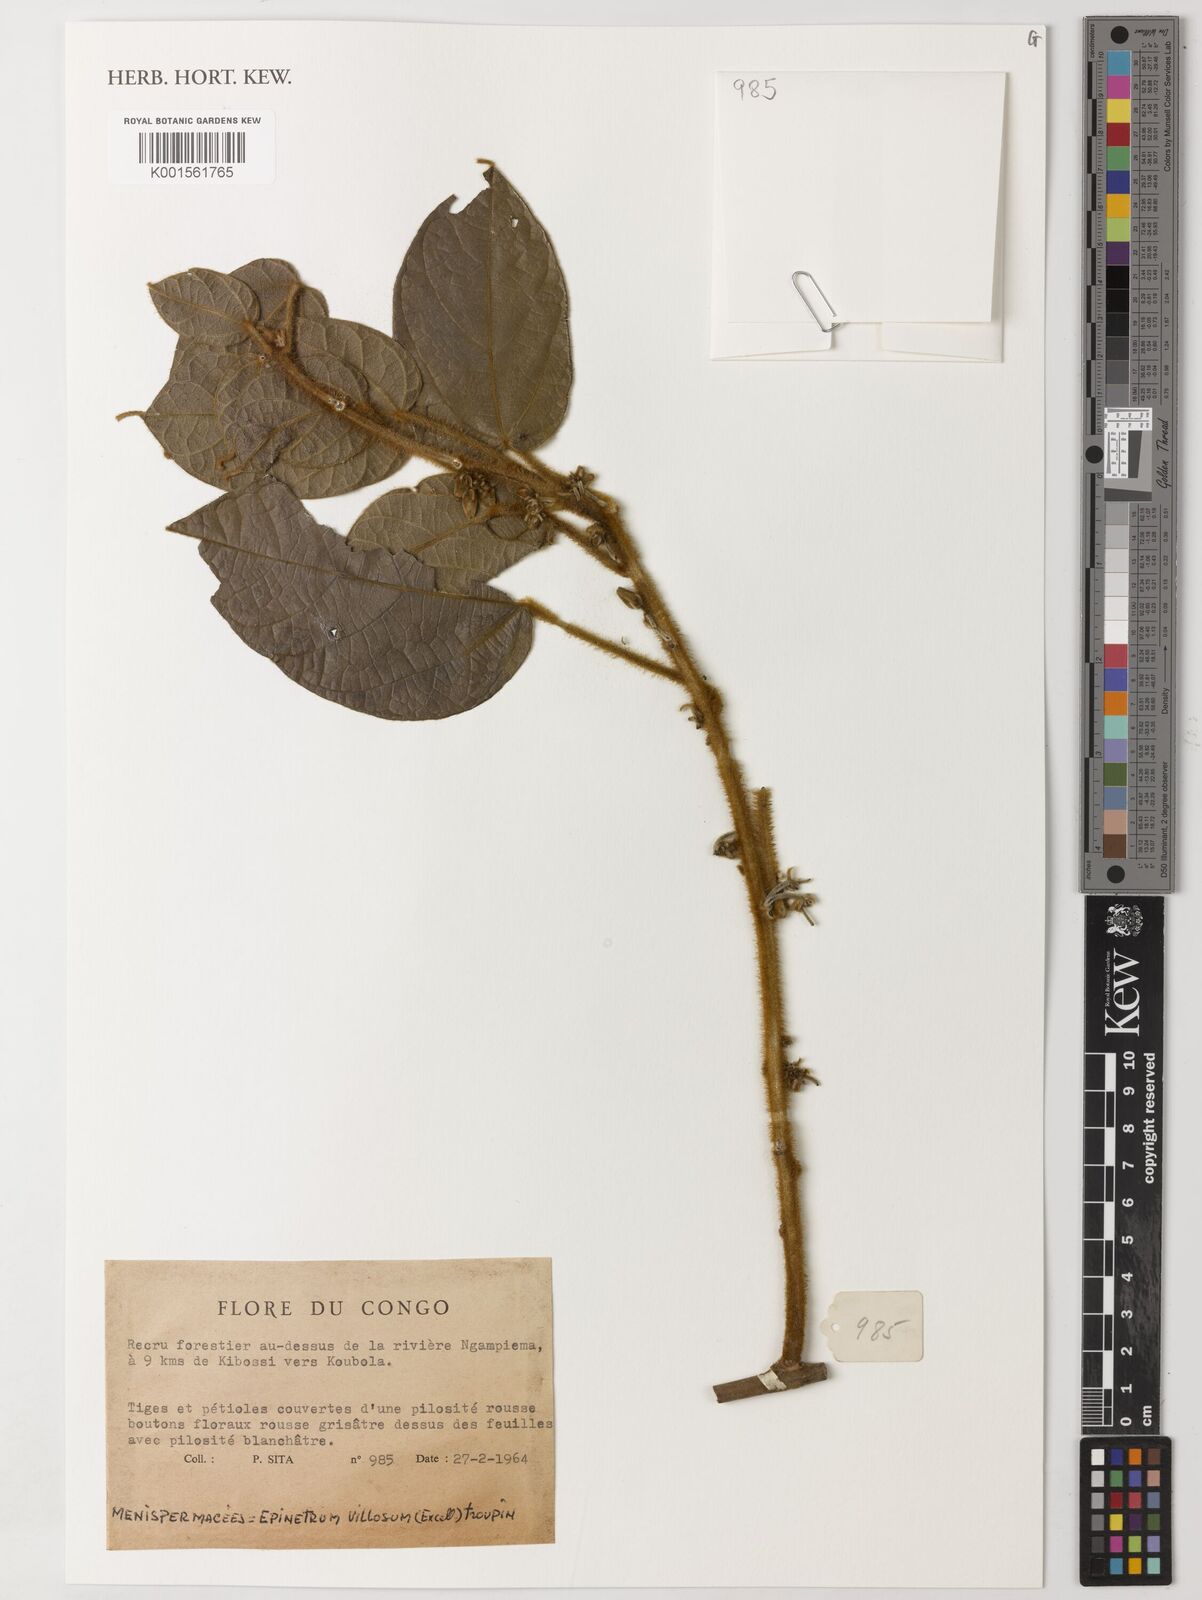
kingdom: Plantae
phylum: Tracheophyta
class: Magnoliopsida
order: Ranunculales
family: Menispermaceae
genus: Albertisia
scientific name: Albertisia villosa
